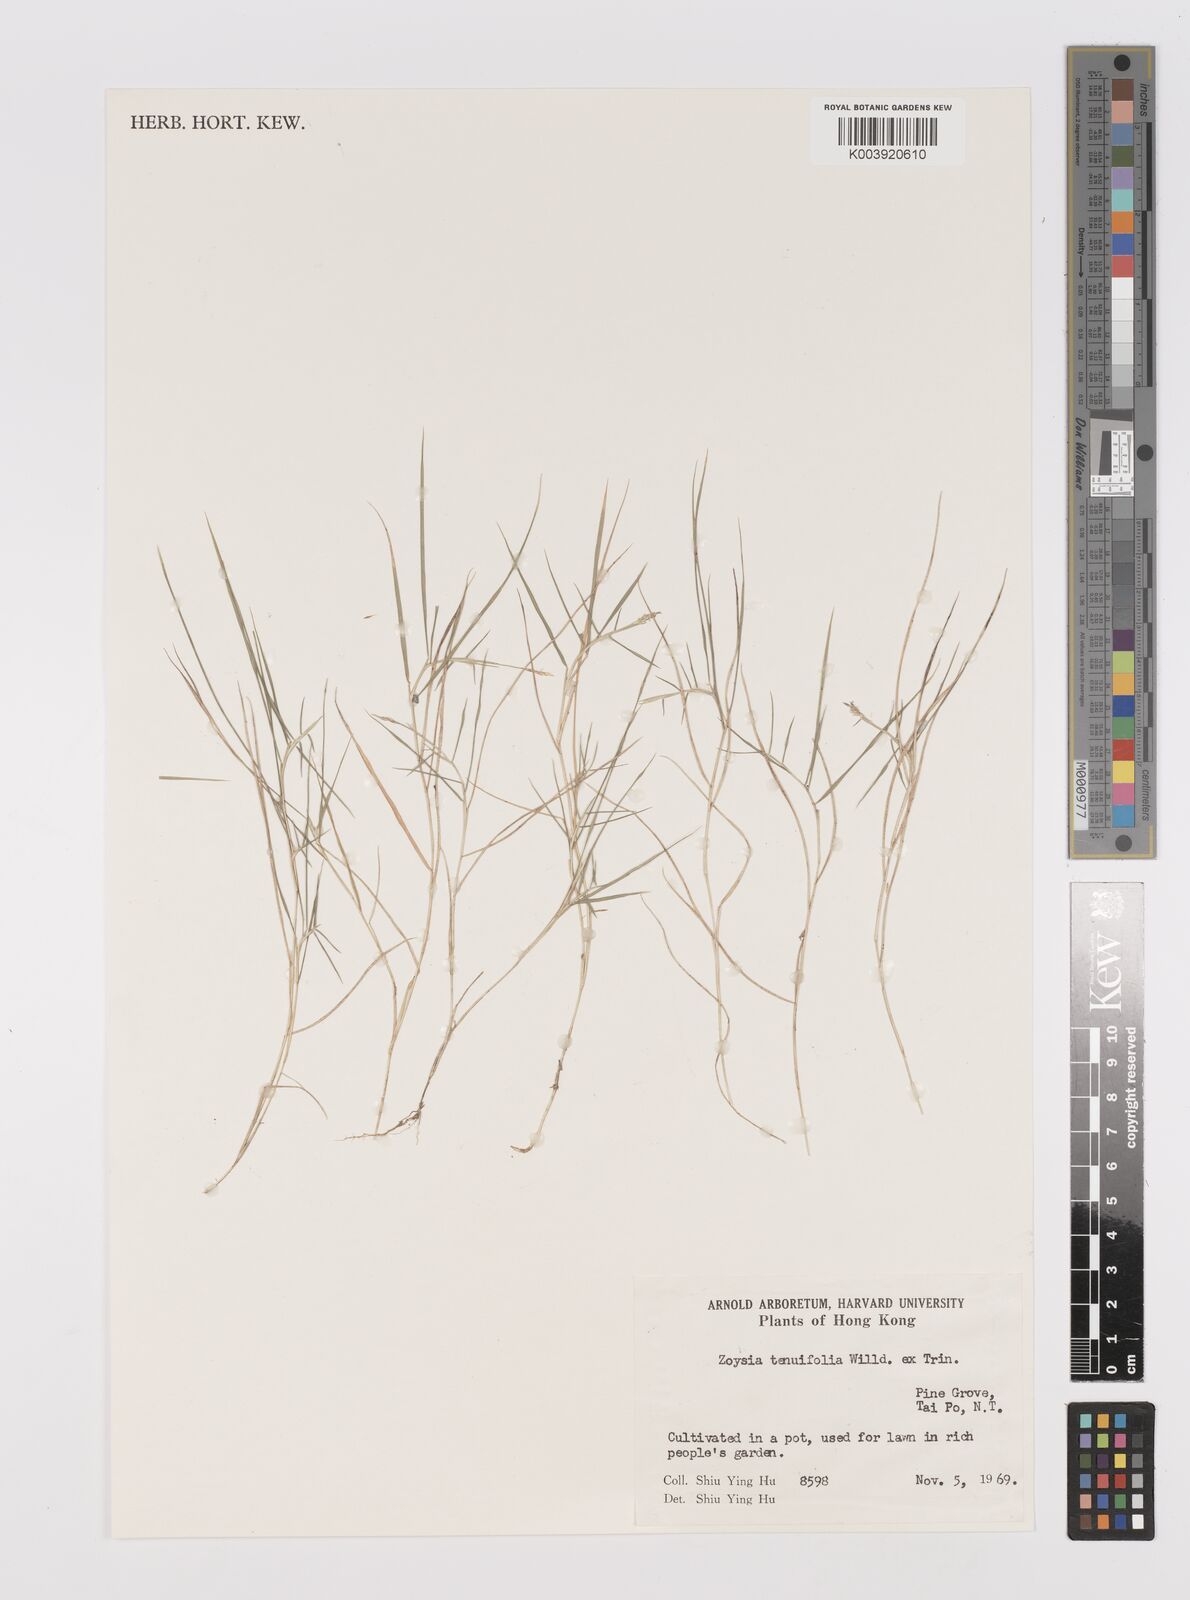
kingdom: Plantae
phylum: Tracheophyta
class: Liliopsida
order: Poales
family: Poaceae
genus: Zoysia
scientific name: Zoysia matrella
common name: Manila grass
